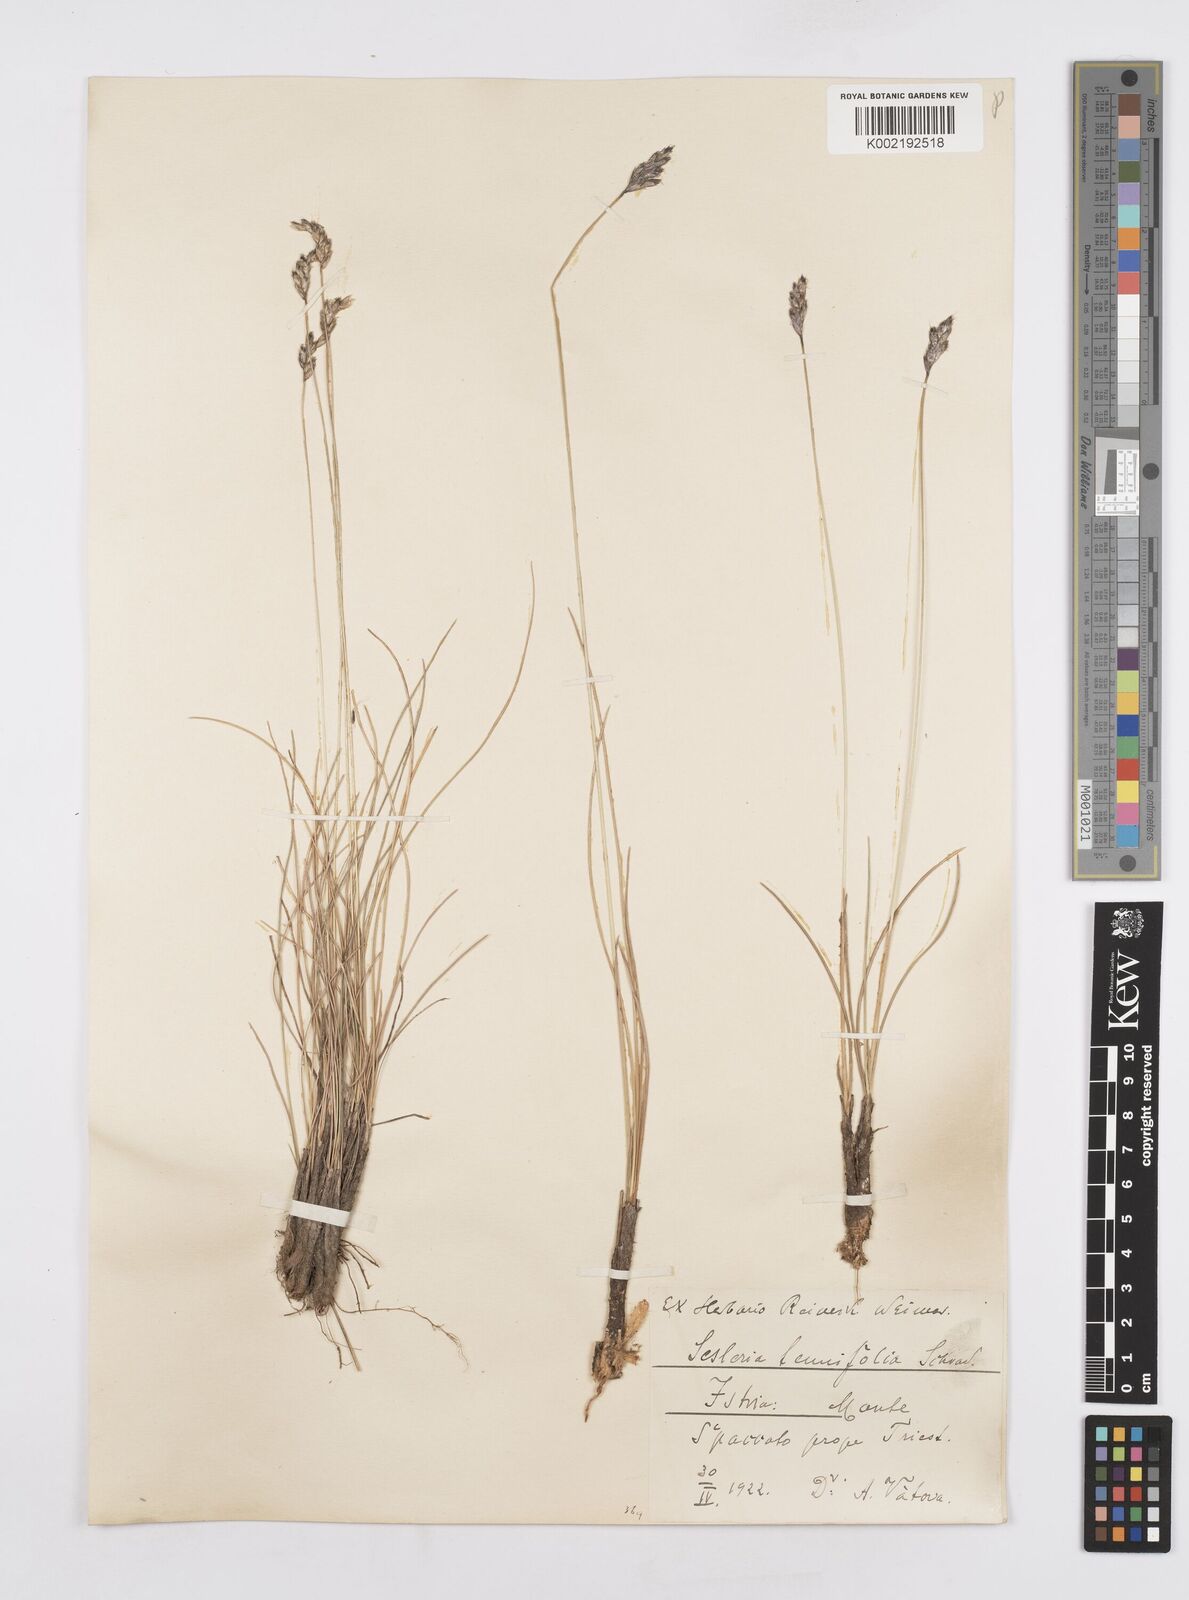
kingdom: Plantae
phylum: Tracheophyta
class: Liliopsida
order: Poales
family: Poaceae
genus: Sesleria
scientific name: Sesleria juncifolia
